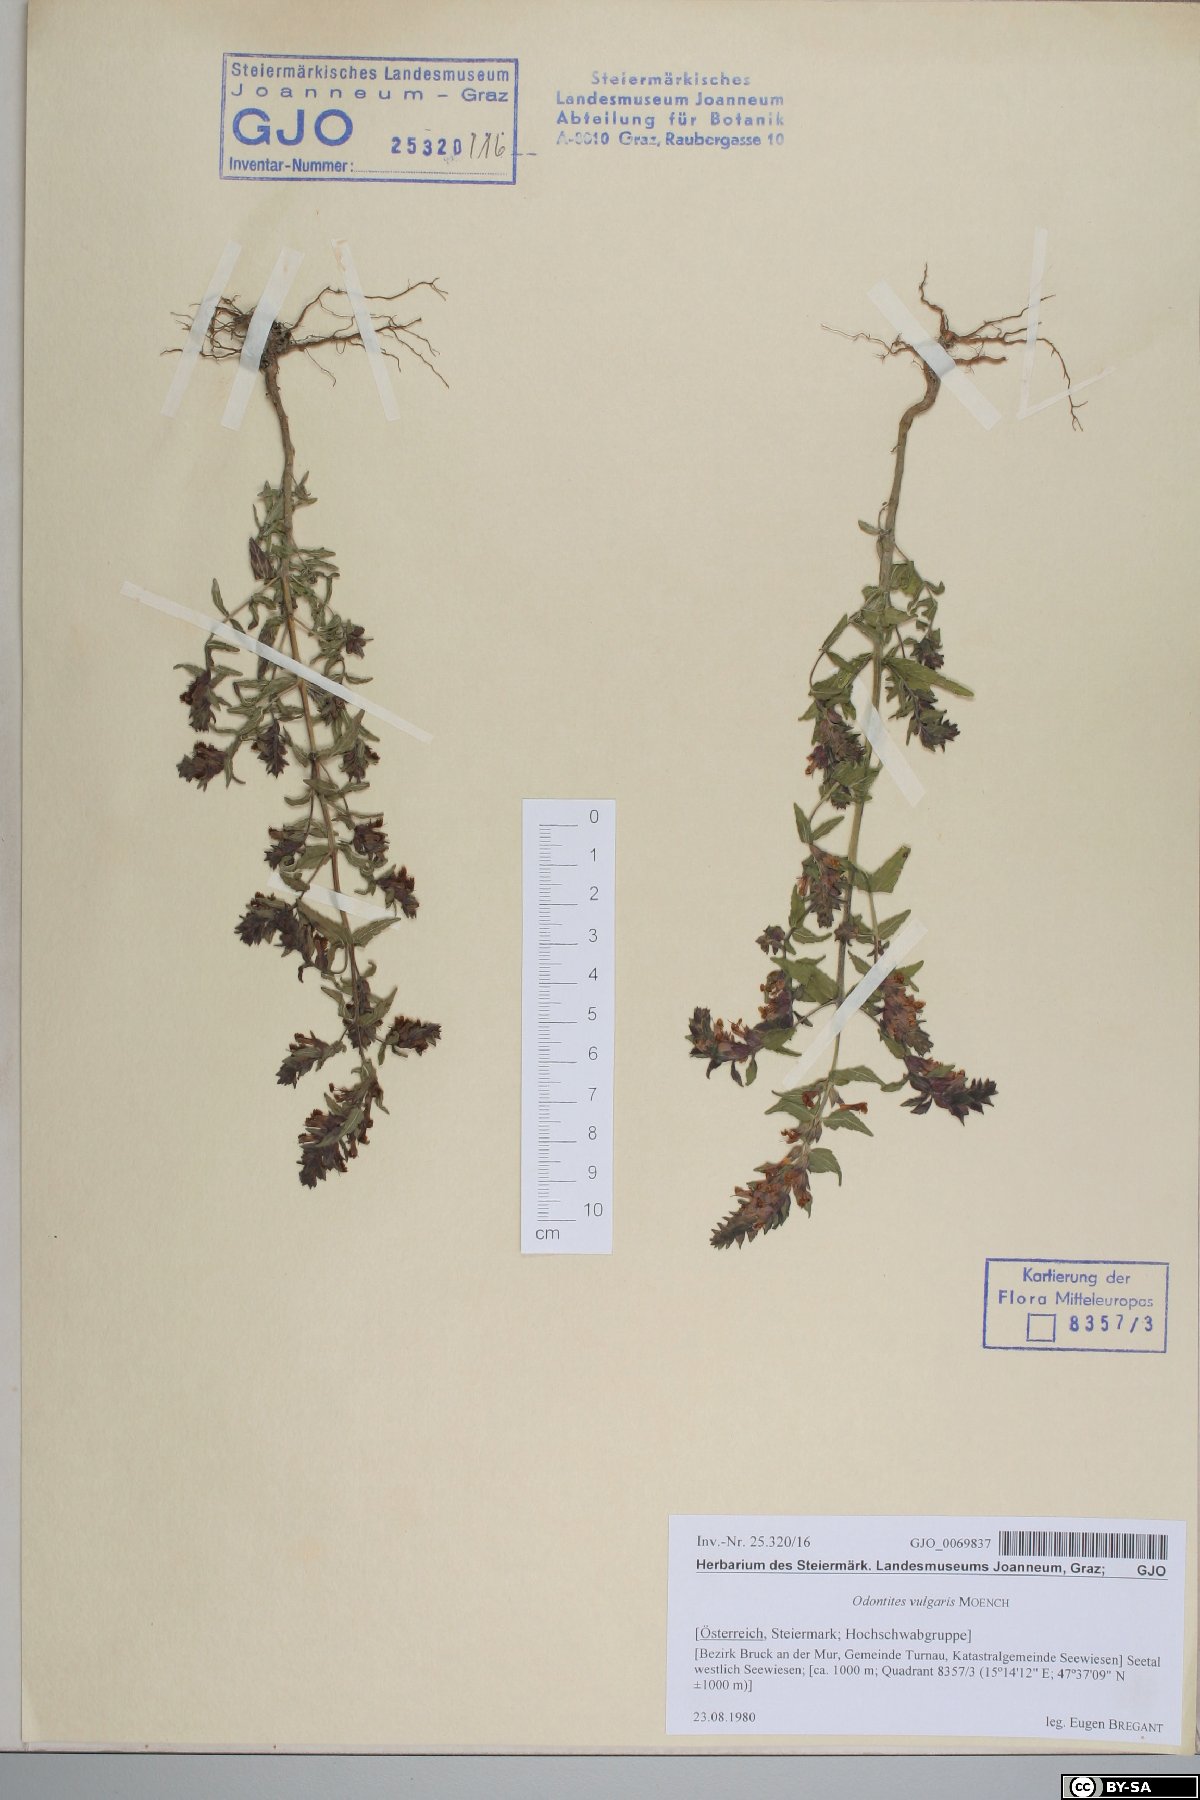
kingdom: Plantae
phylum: Tracheophyta
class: Magnoliopsida
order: Lamiales
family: Orobanchaceae
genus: Odontites
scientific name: Odontites vulgaris
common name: Broomrape
